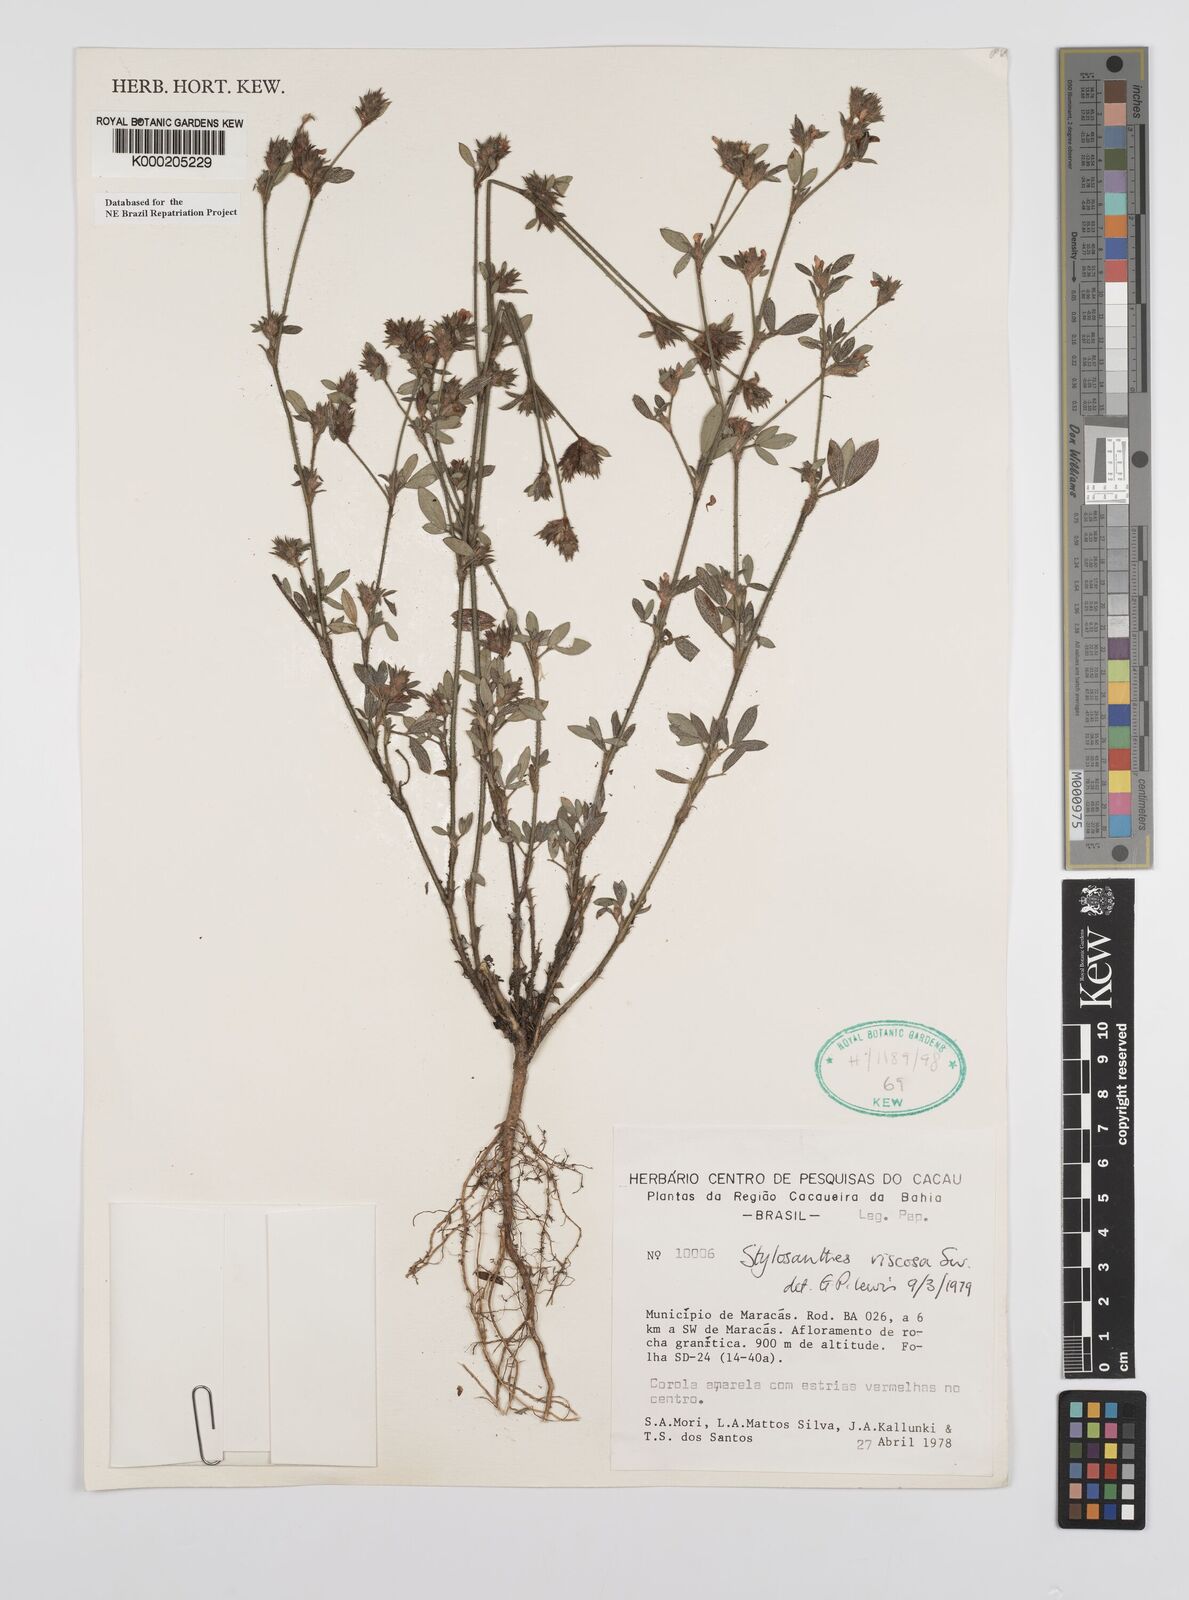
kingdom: Plantae
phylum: Tracheophyta
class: Magnoliopsida
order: Fabales
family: Fabaceae
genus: Stylosanthes
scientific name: Stylosanthes viscosa
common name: Viscid pencil-flower
